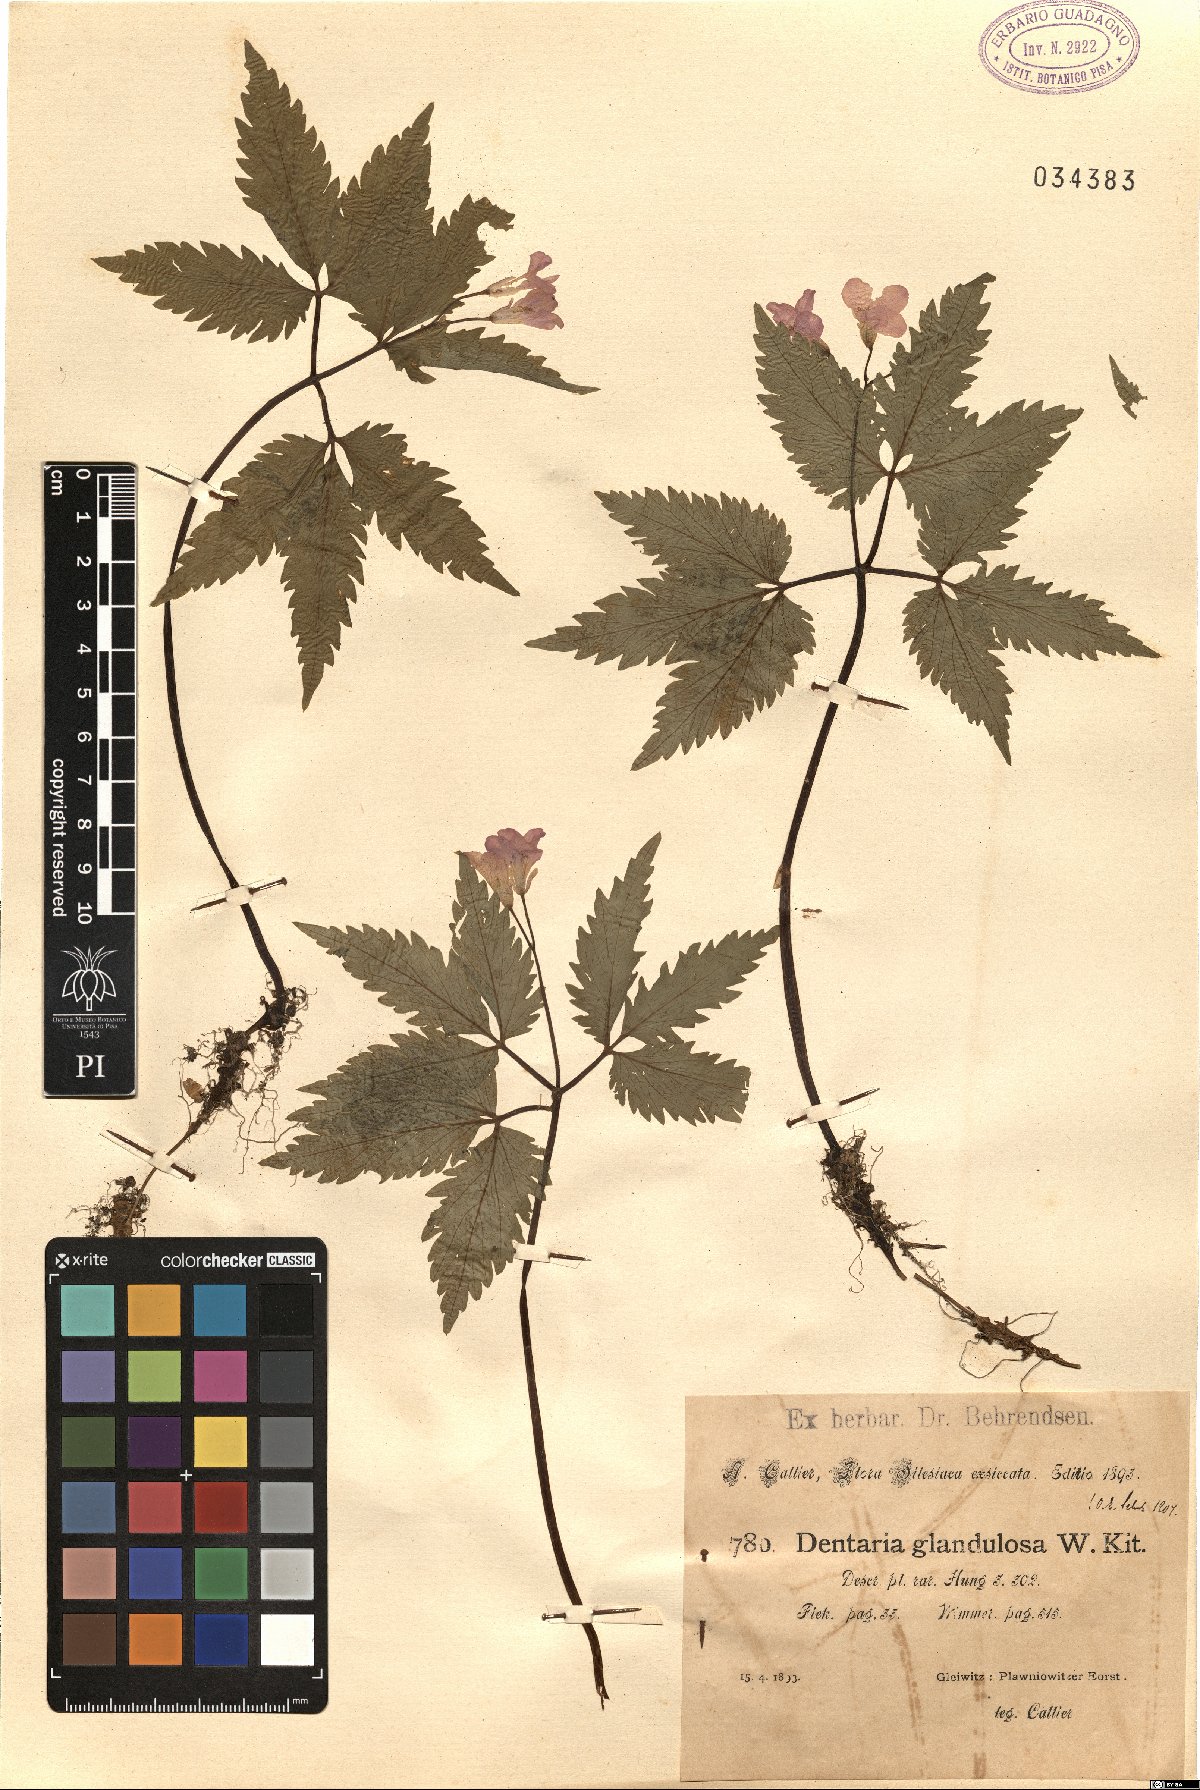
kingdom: Plantae
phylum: Tracheophyta
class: Magnoliopsida
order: Brassicales
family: Brassicaceae
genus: Cardamine
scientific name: Cardamine glanduligera
